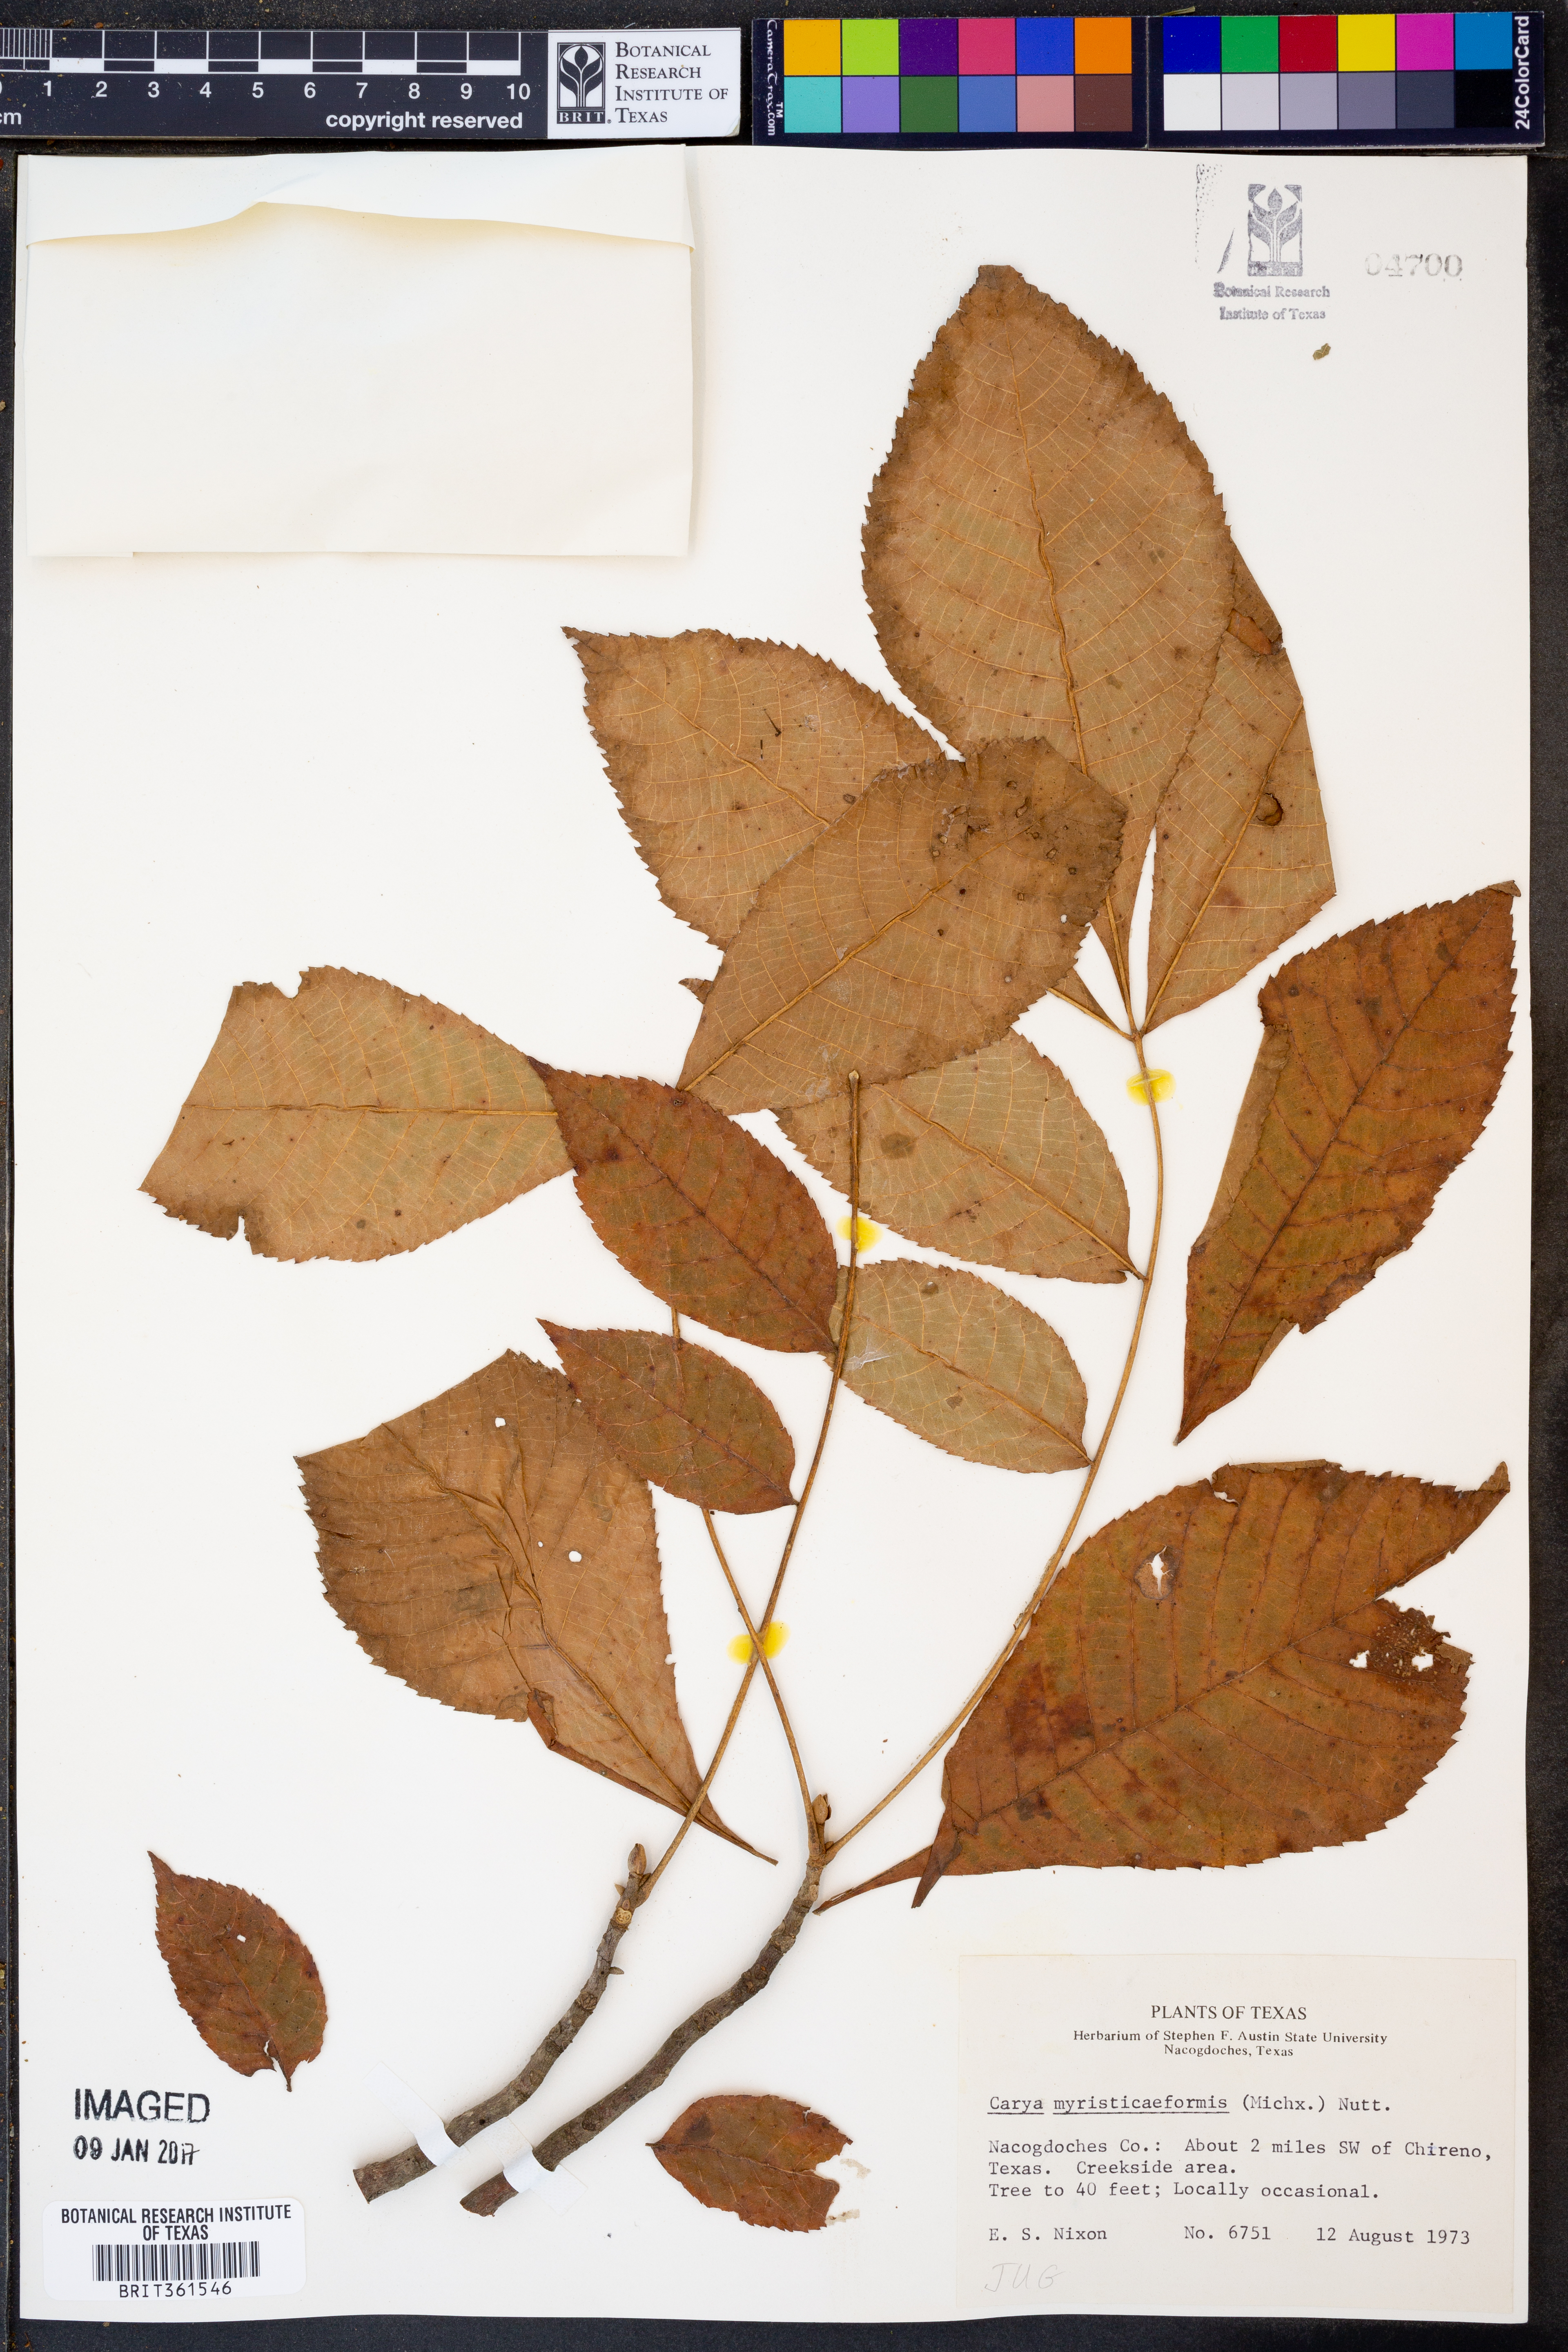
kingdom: Plantae
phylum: Tracheophyta
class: Magnoliopsida
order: Fagales
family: Juglandaceae
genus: Carya
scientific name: Carya myristiciformis
